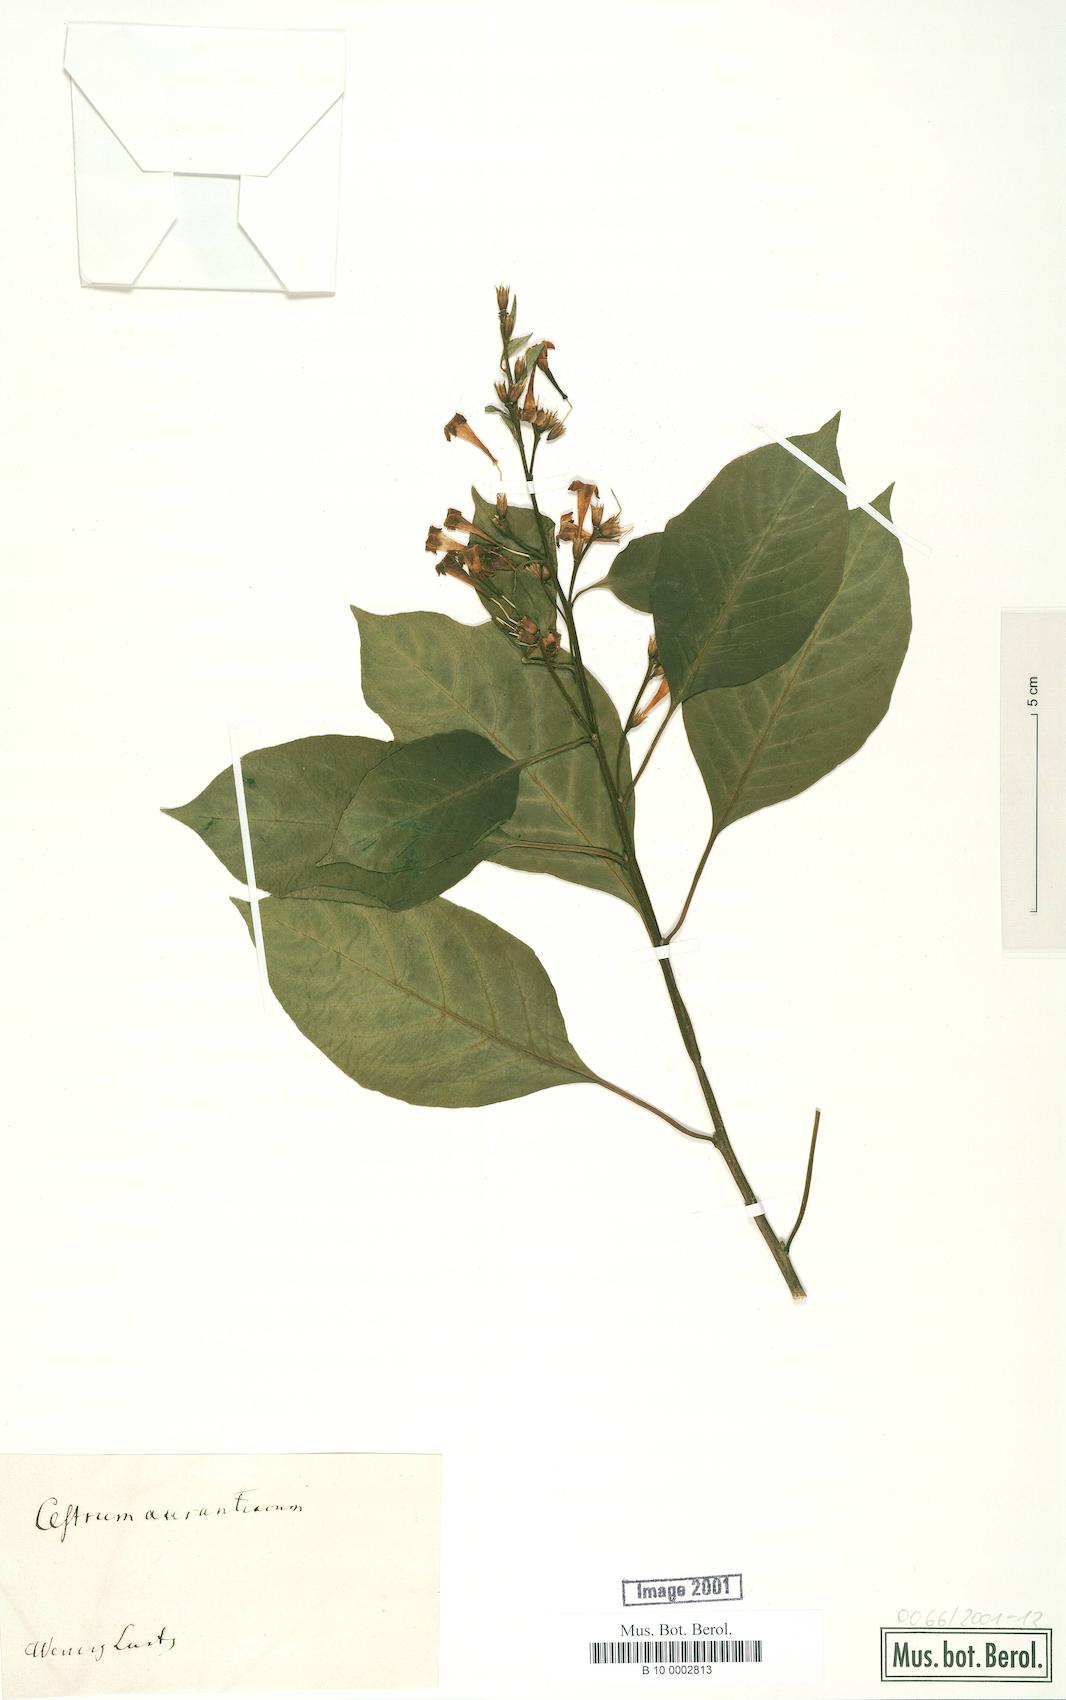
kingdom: Plantae
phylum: Tracheophyta
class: Magnoliopsida
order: Solanales
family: Solanaceae
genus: Cestrum
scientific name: Cestrum aurantiacum
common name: Orange cestrum
